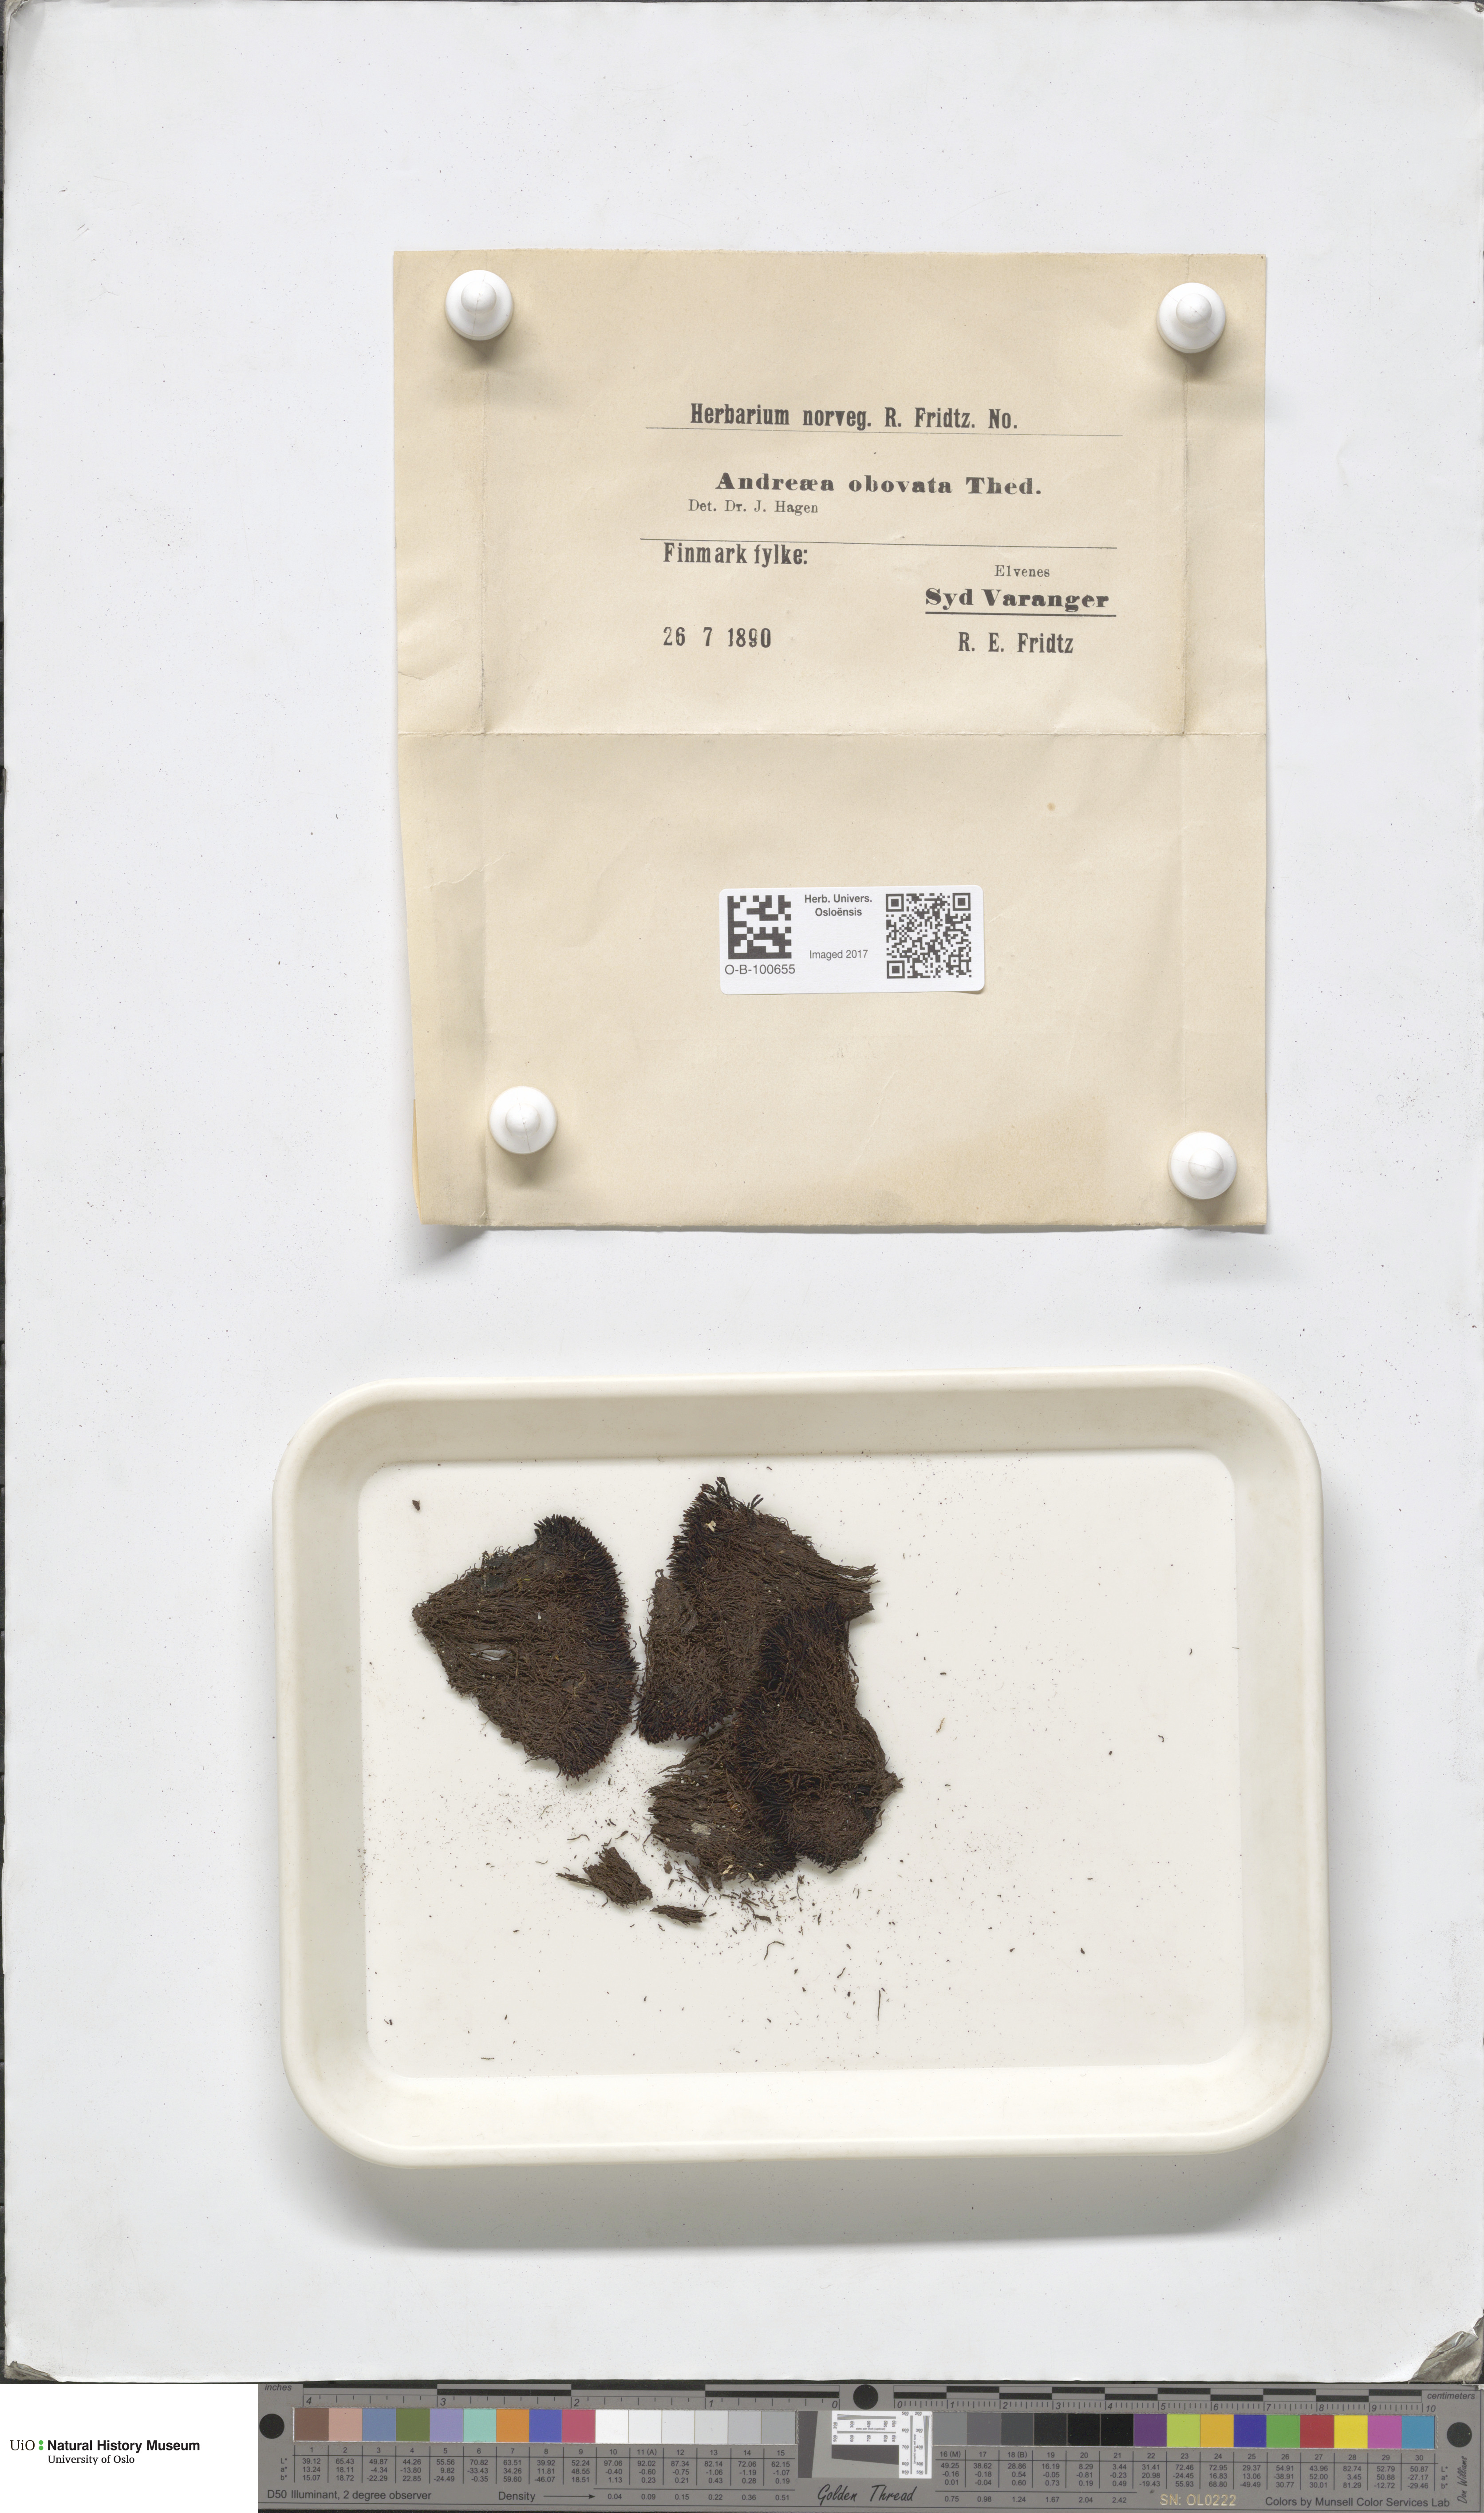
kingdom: Plantae
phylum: Bryophyta
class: Andreaeopsida
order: Andreaeales
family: Andreaeaceae
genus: Andreaea
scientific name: Andreaea alpina
